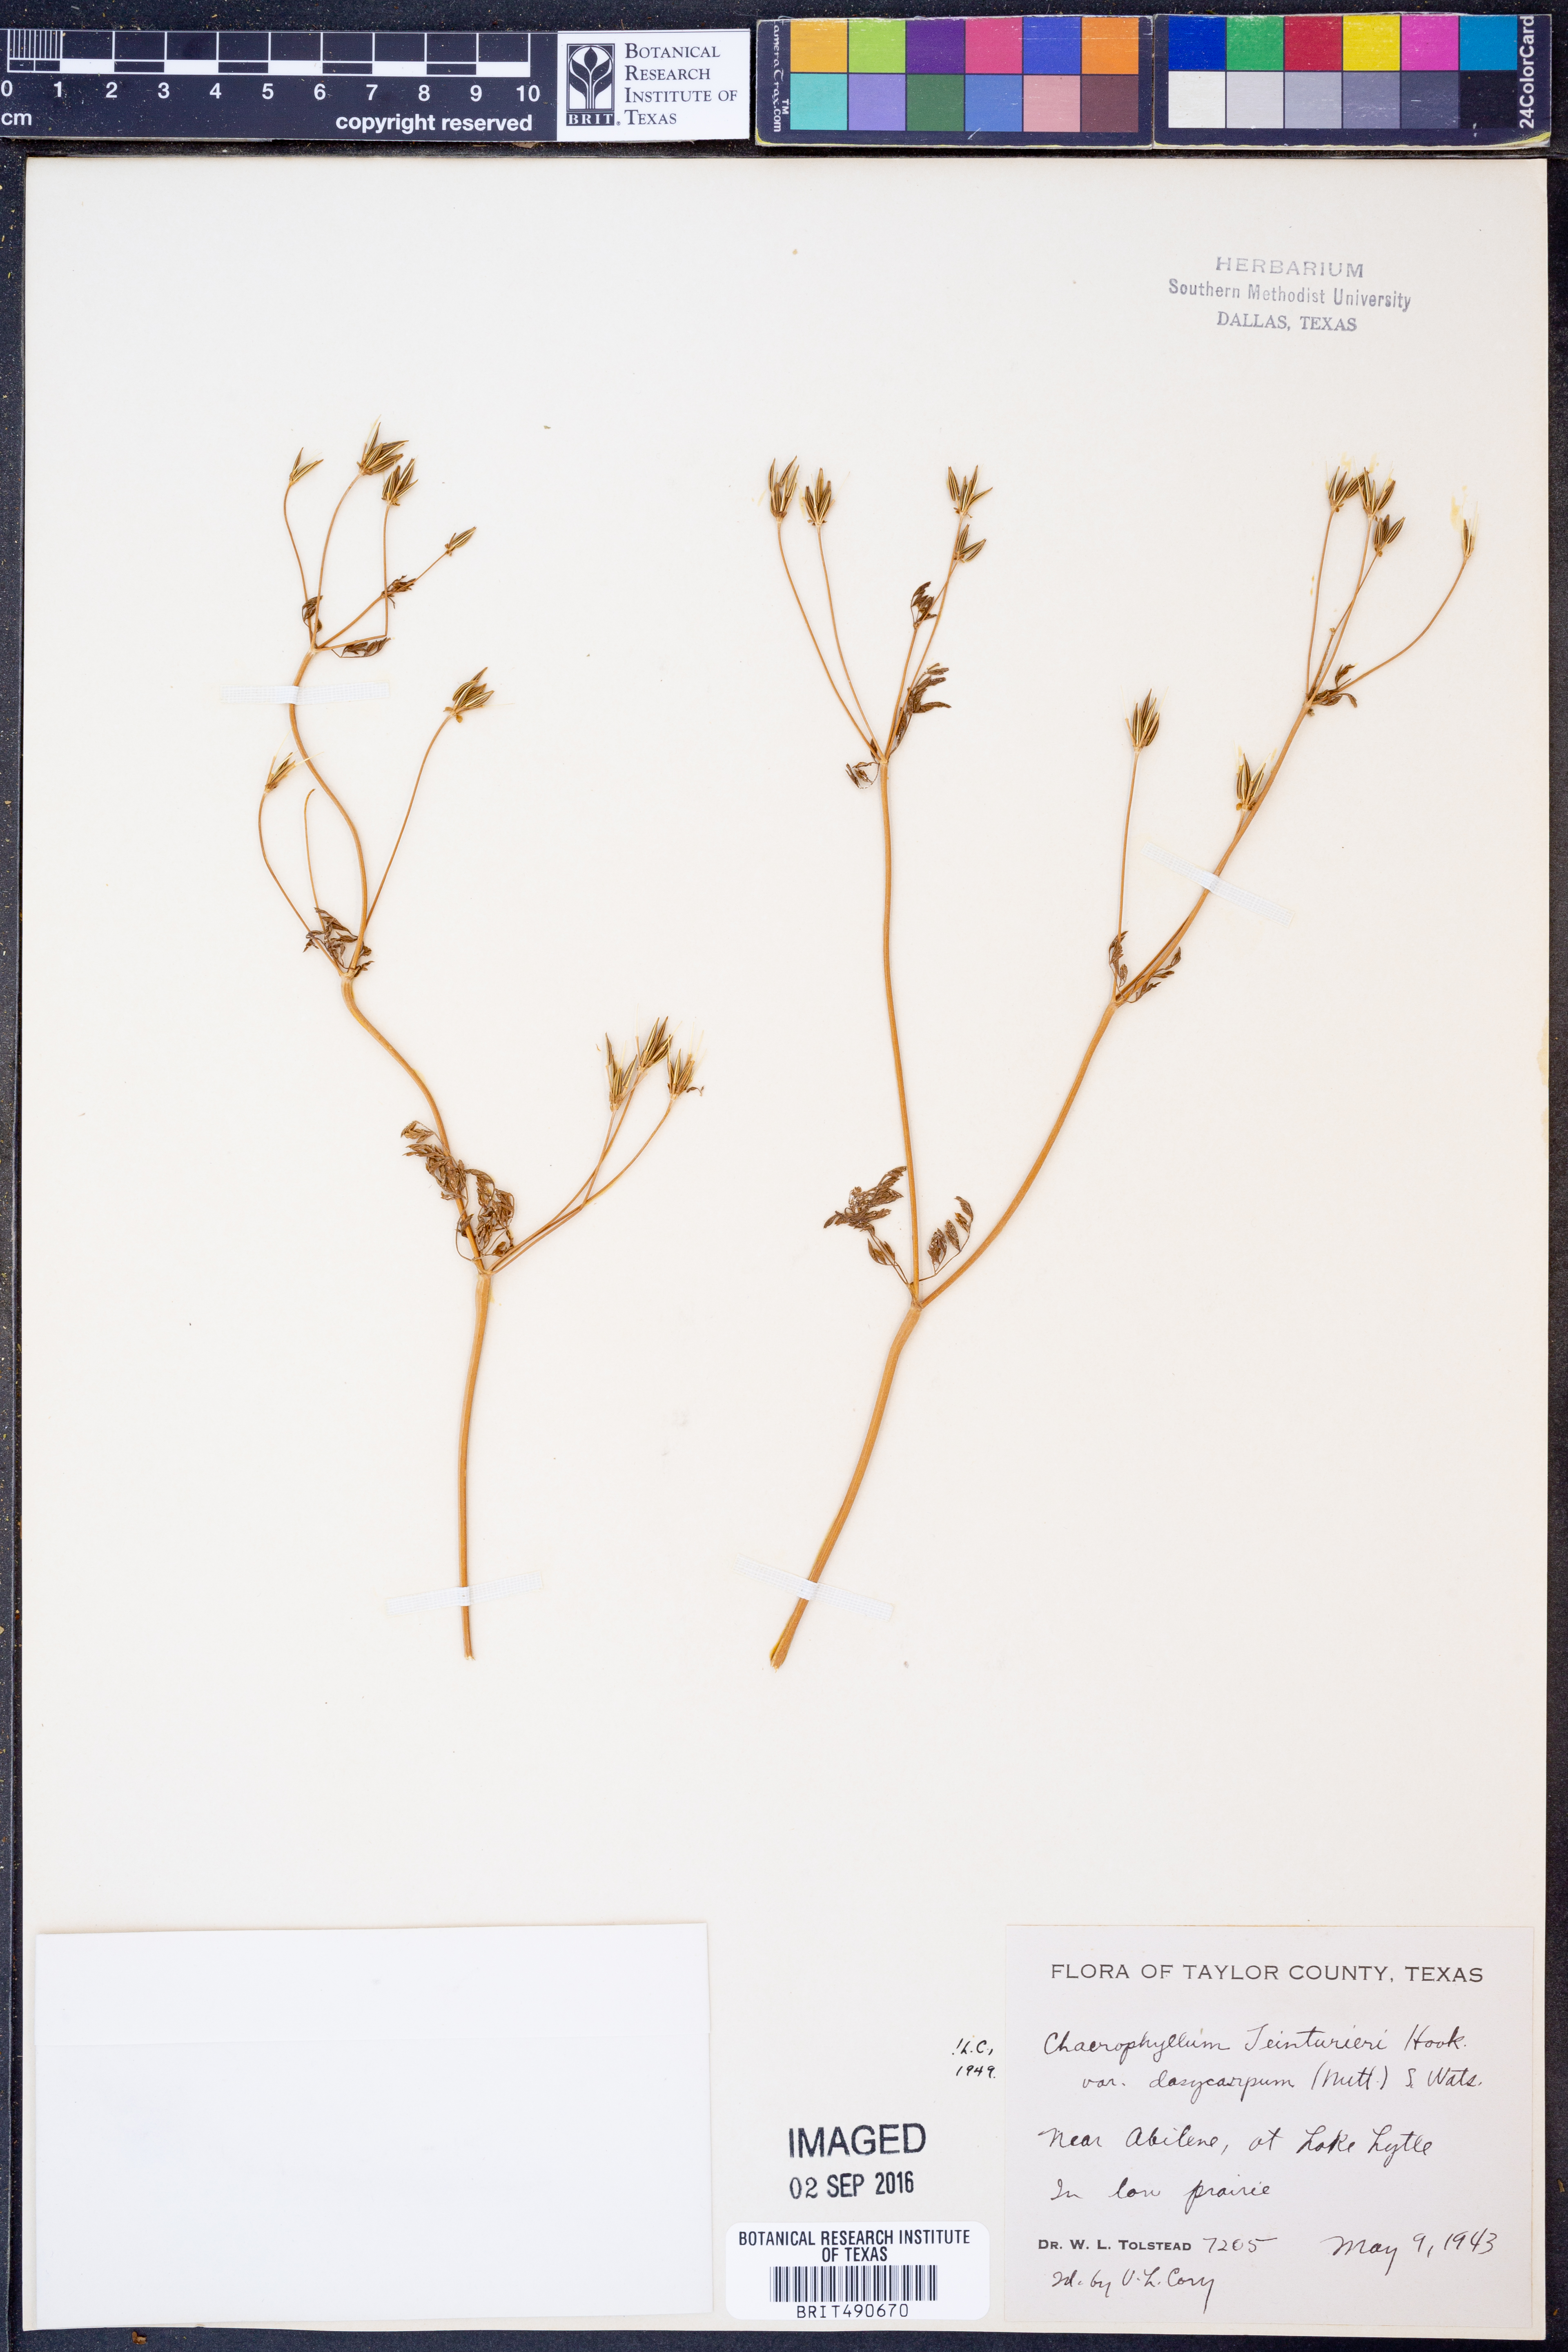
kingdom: Plantae
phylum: Tracheophyta
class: Magnoliopsida
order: Apiales
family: Apiaceae
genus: Chaerophyllum
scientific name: Chaerophyllum dasycarpum
